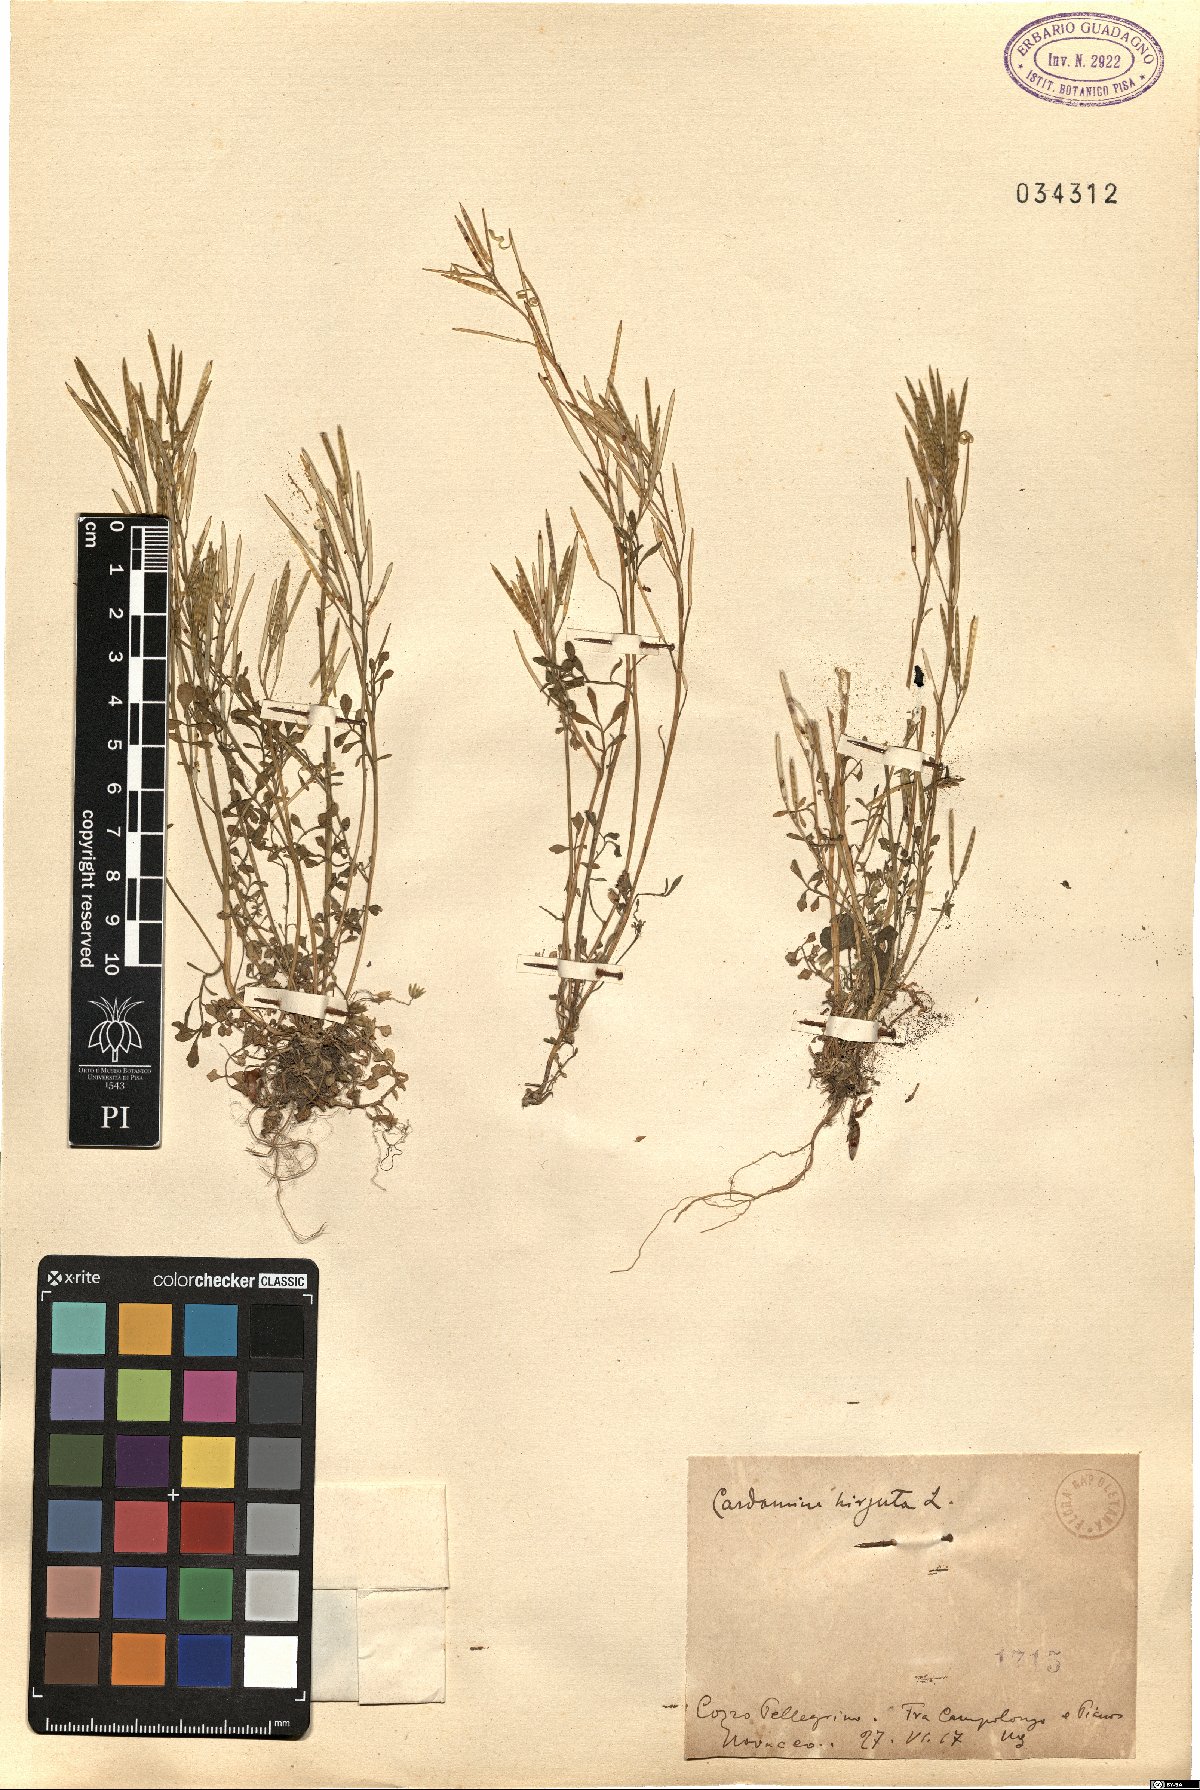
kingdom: Plantae
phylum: Tracheophyta
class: Magnoliopsida
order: Brassicales
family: Brassicaceae
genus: Cardamine
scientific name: Cardamine hirsuta
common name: Hairy bittercress
